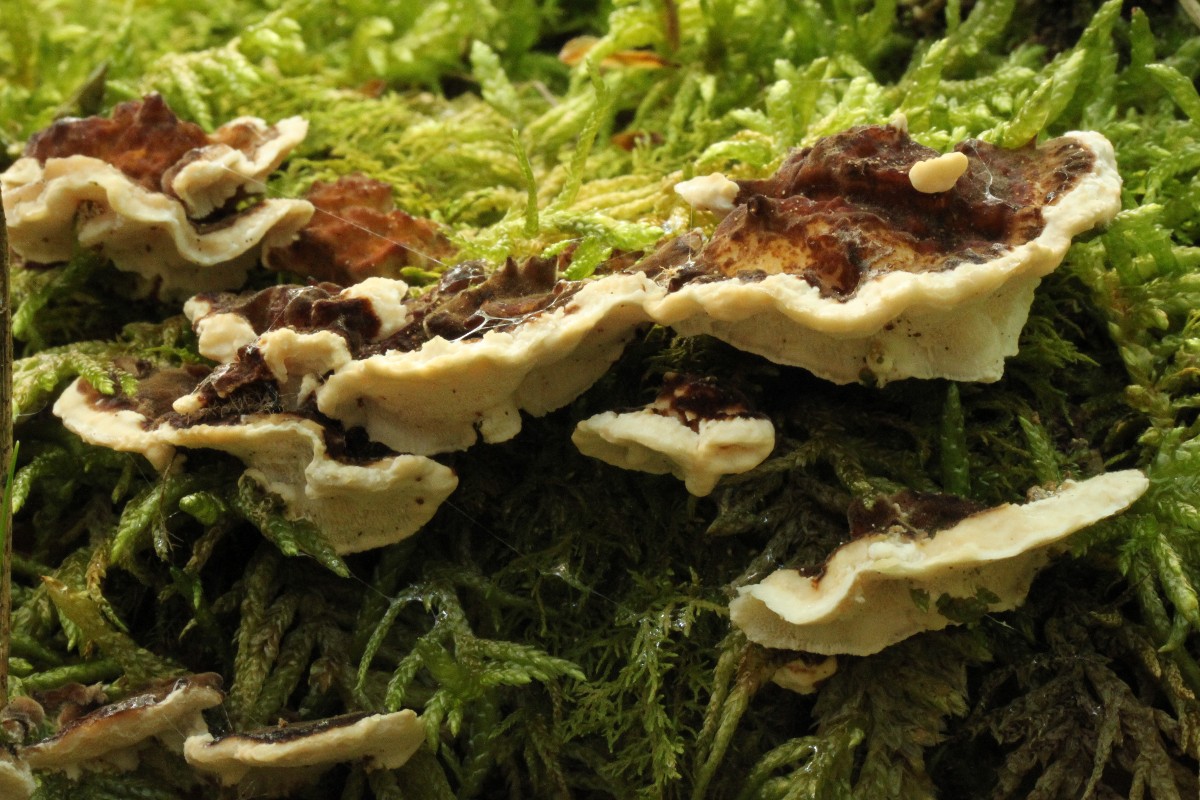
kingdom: Fungi
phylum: Basidiomycota
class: Agaricomycetes
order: Polyporales
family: Polyporaceae
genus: Trametes
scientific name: Trametes
